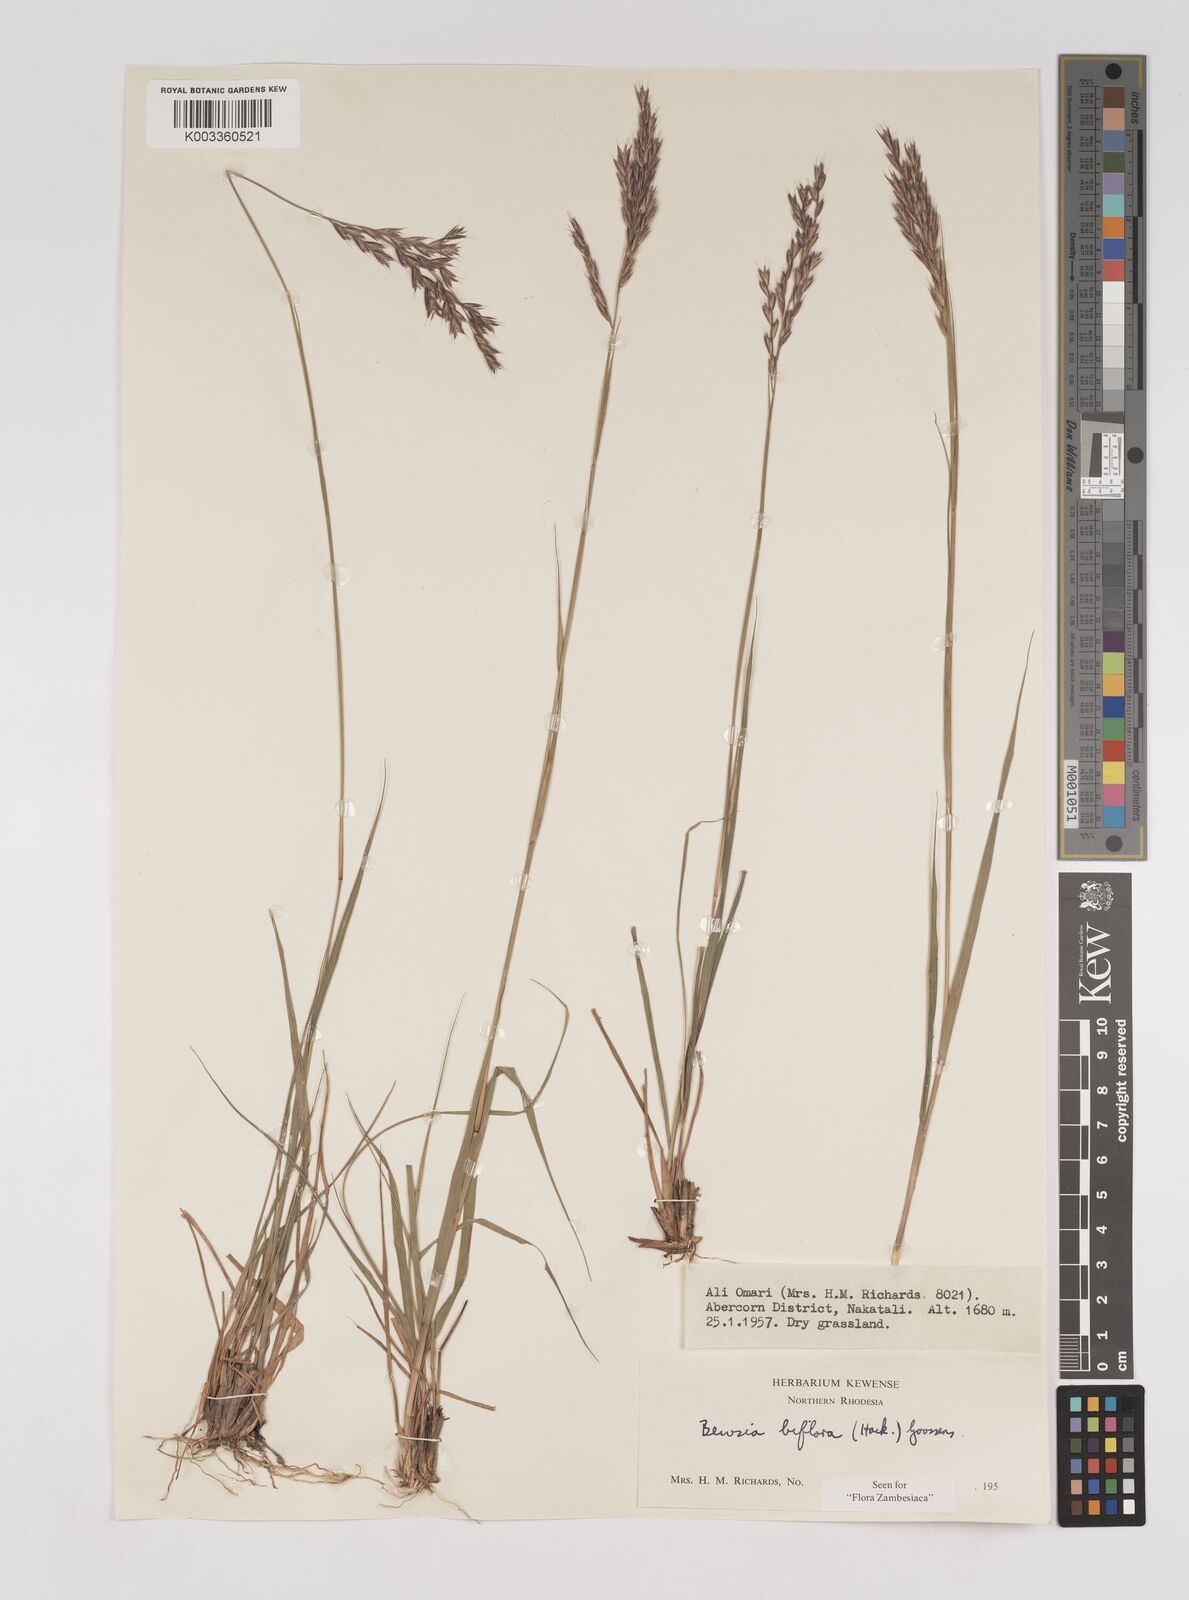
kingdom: Plantae
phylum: Tracheophyta
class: Liliopsida
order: Poales
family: Poaceae
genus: Bewsia
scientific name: Bewsia biflora
